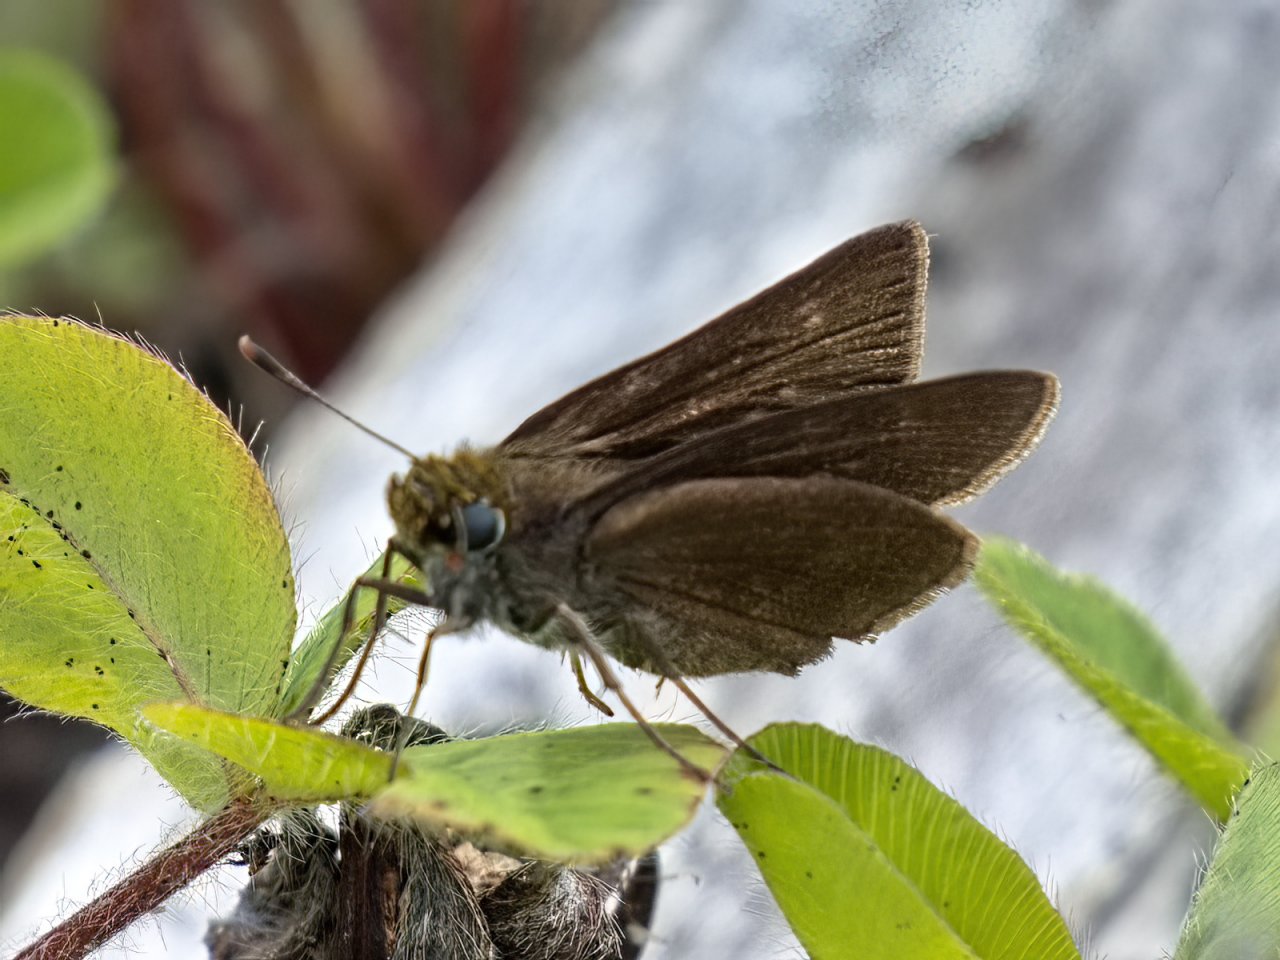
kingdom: Animalia
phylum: Arthropoda
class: Insecta
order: Lepidoptera
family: Hesperiidae
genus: Euphyes
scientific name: Euphyes vestris
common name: Dun Skipper
